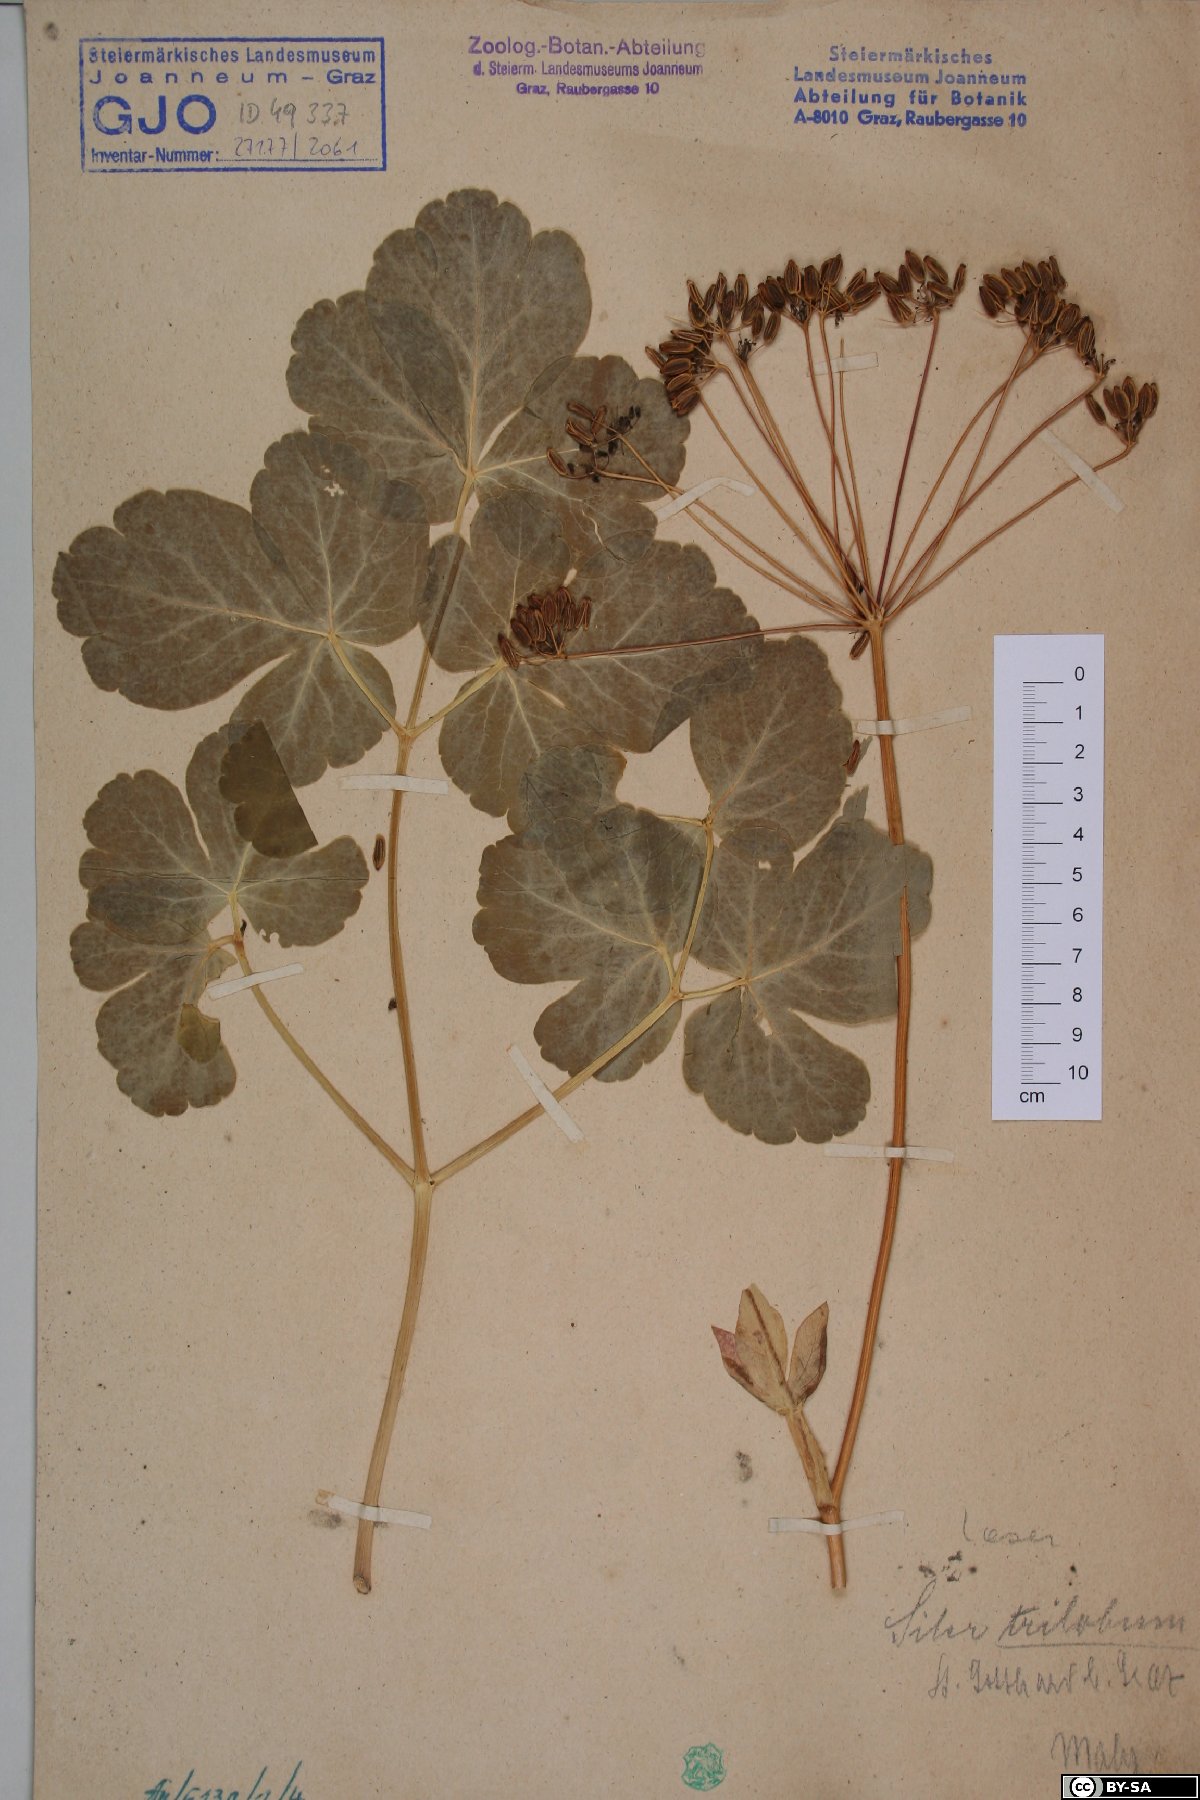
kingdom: Plantae
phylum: Tracheophyta
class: Magnoliopsida
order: Apiales
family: Apiaceae
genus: Laser
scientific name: Laser trilobum
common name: Laser
